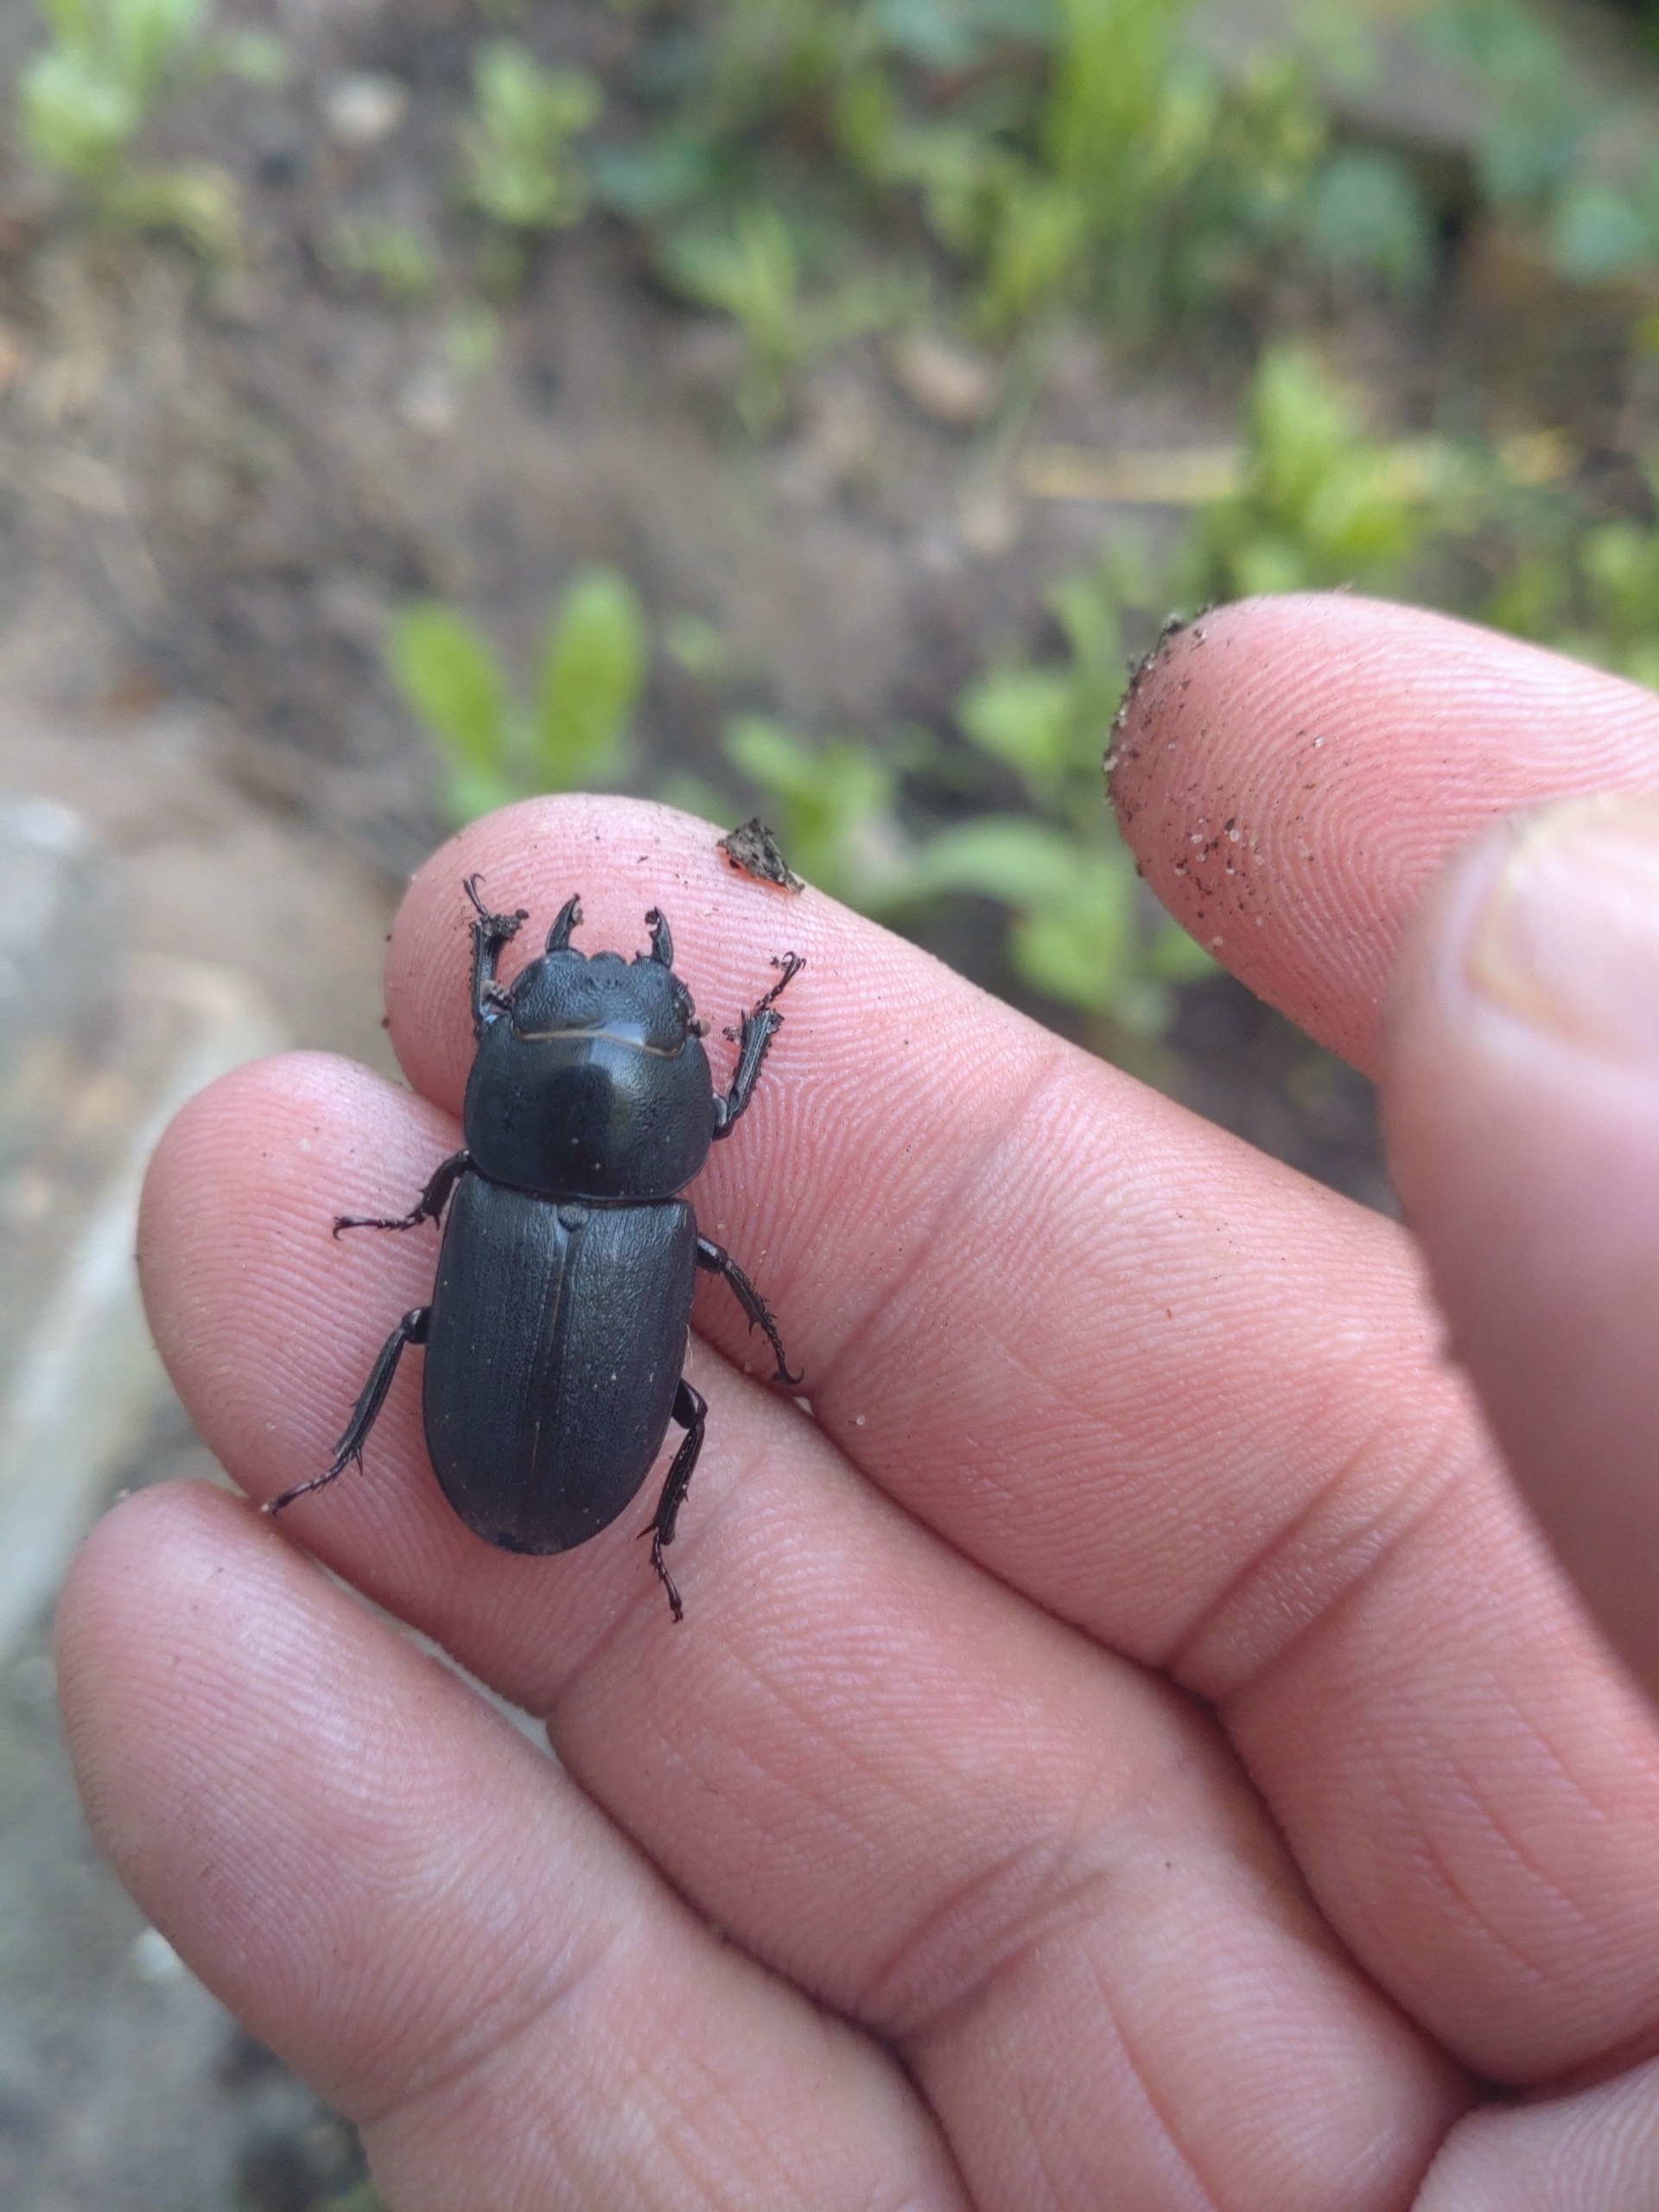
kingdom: Animalia
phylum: Arthropoda
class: Insecta
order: Coleoptera
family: Lucanidae
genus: Dorcus
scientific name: Dorcus parallelipipedus
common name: Bøghjort
